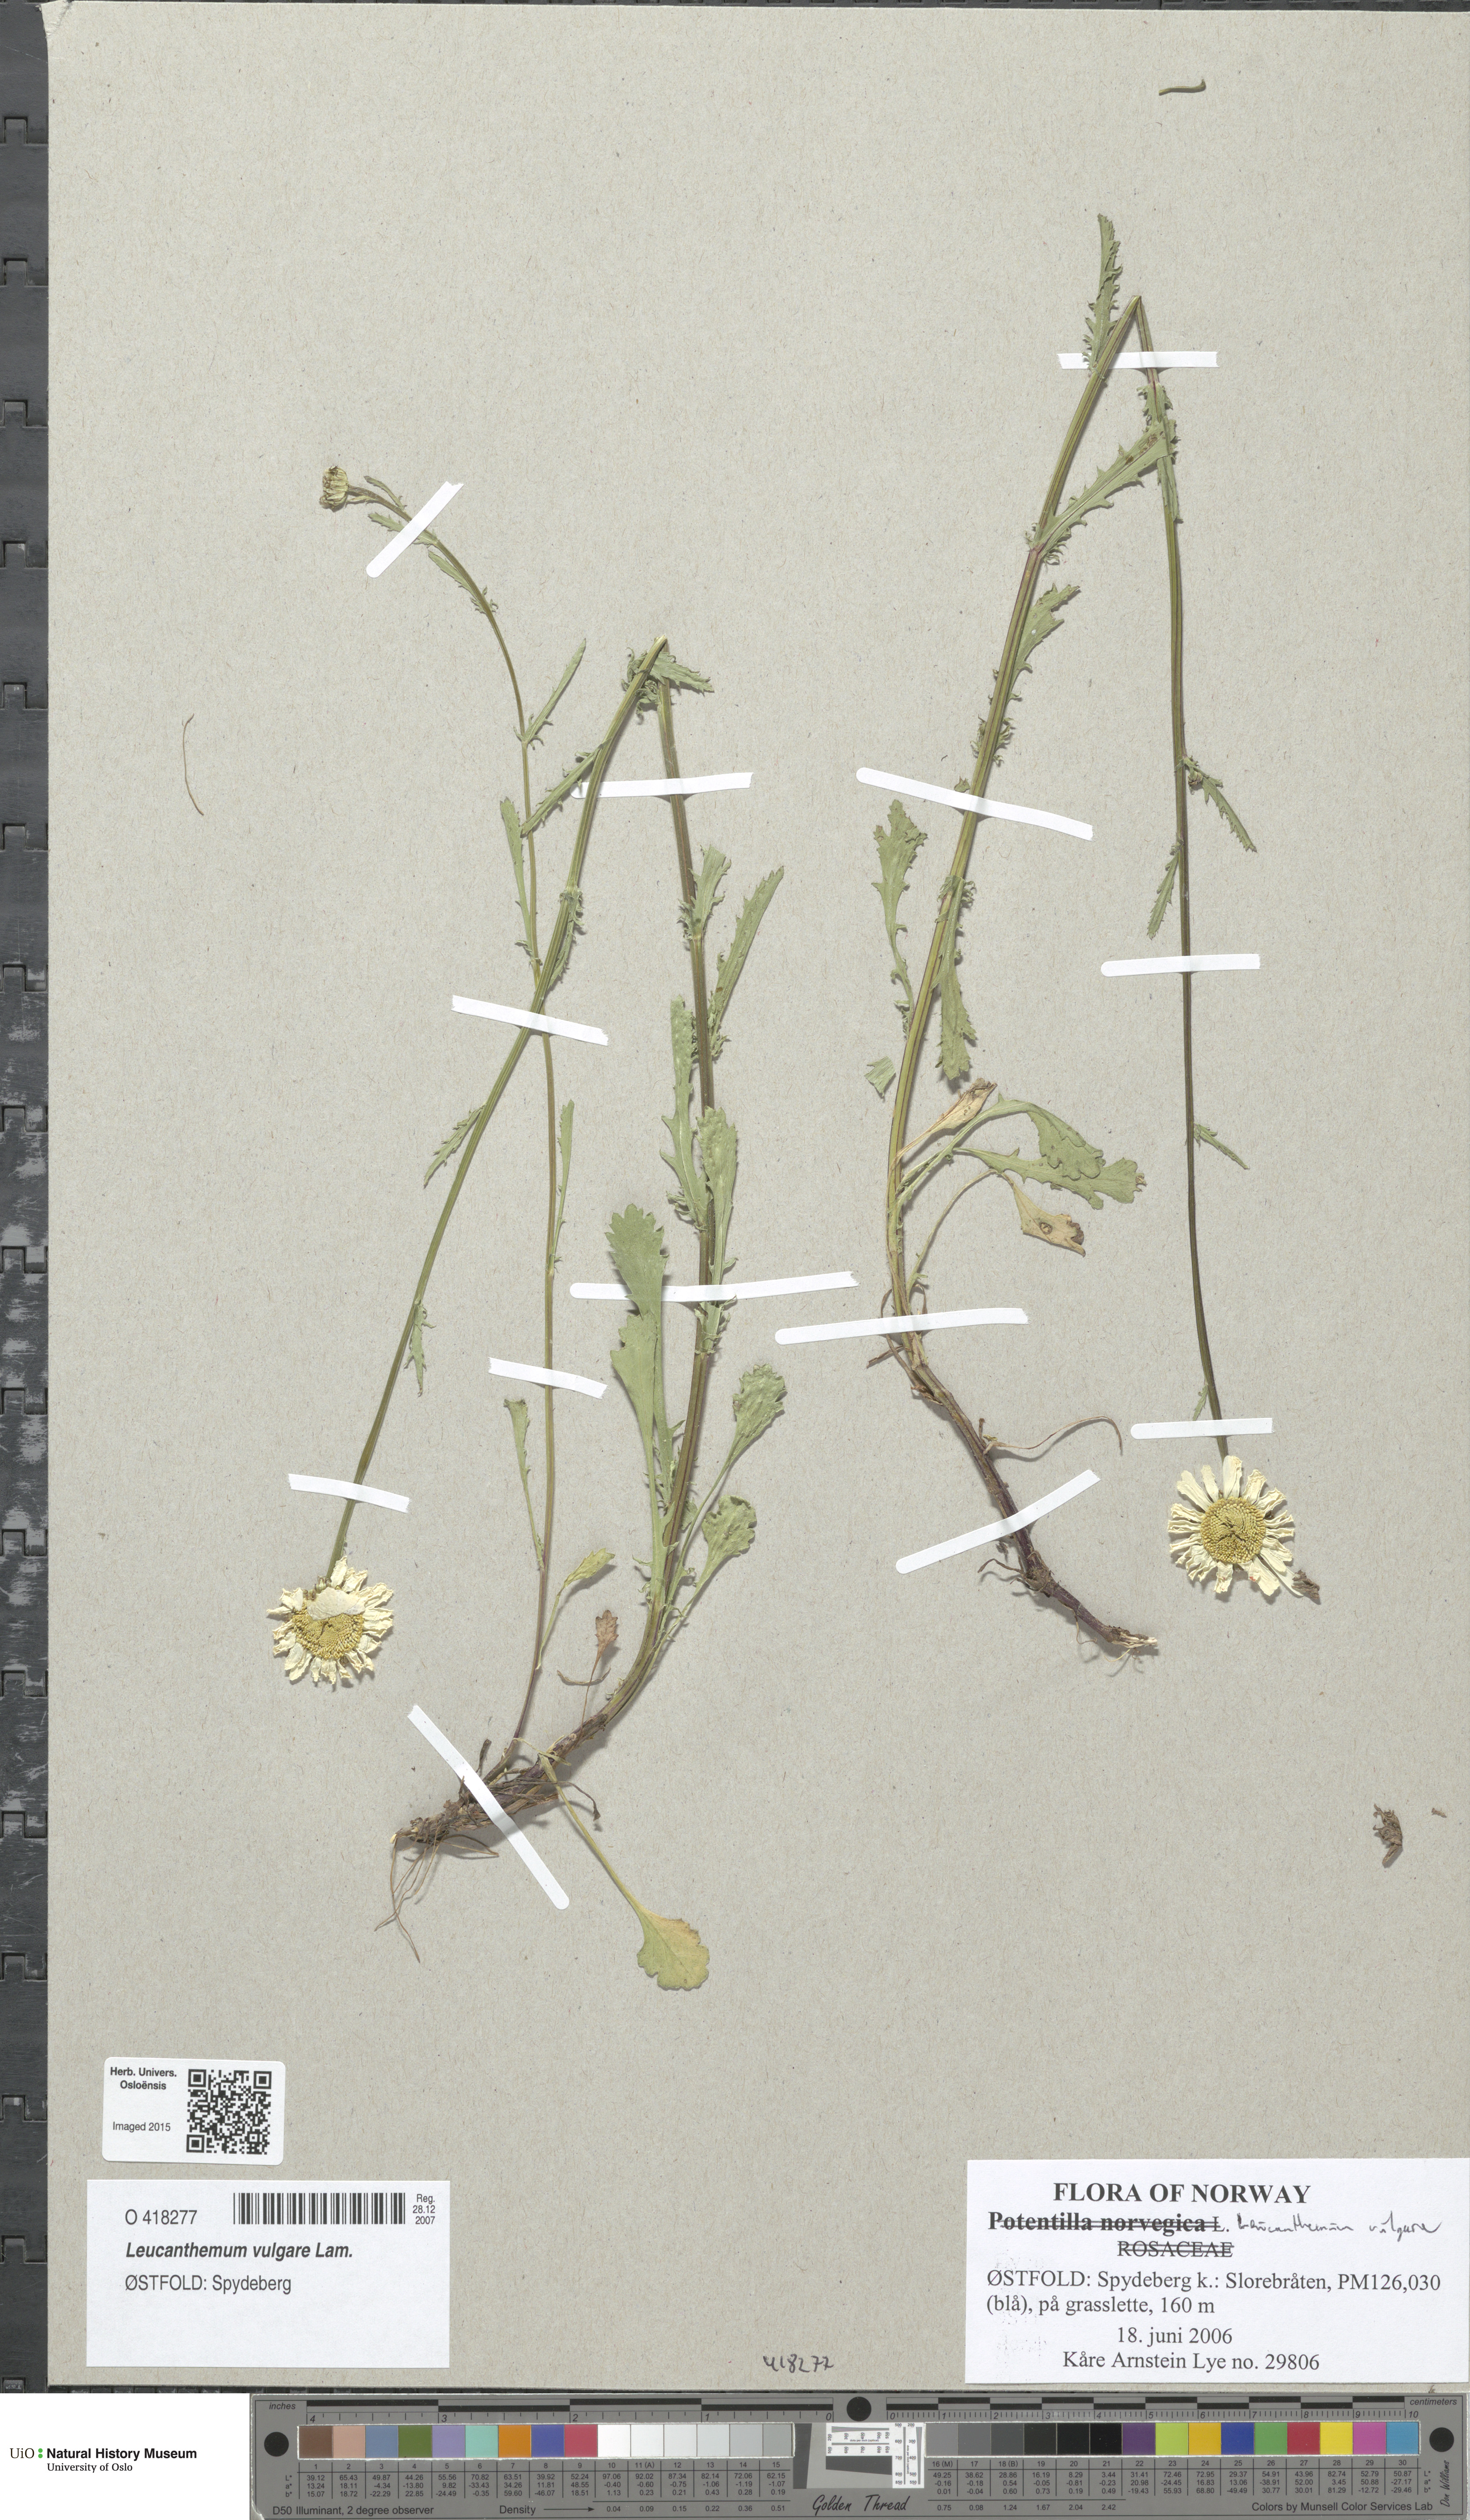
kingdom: Plantae
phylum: Tracheophyta
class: Magnoliopsida
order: Asterales
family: Asteraceae
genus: Leucanthemum
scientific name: Leucanthemum vulgare
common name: Oxeye daisy
